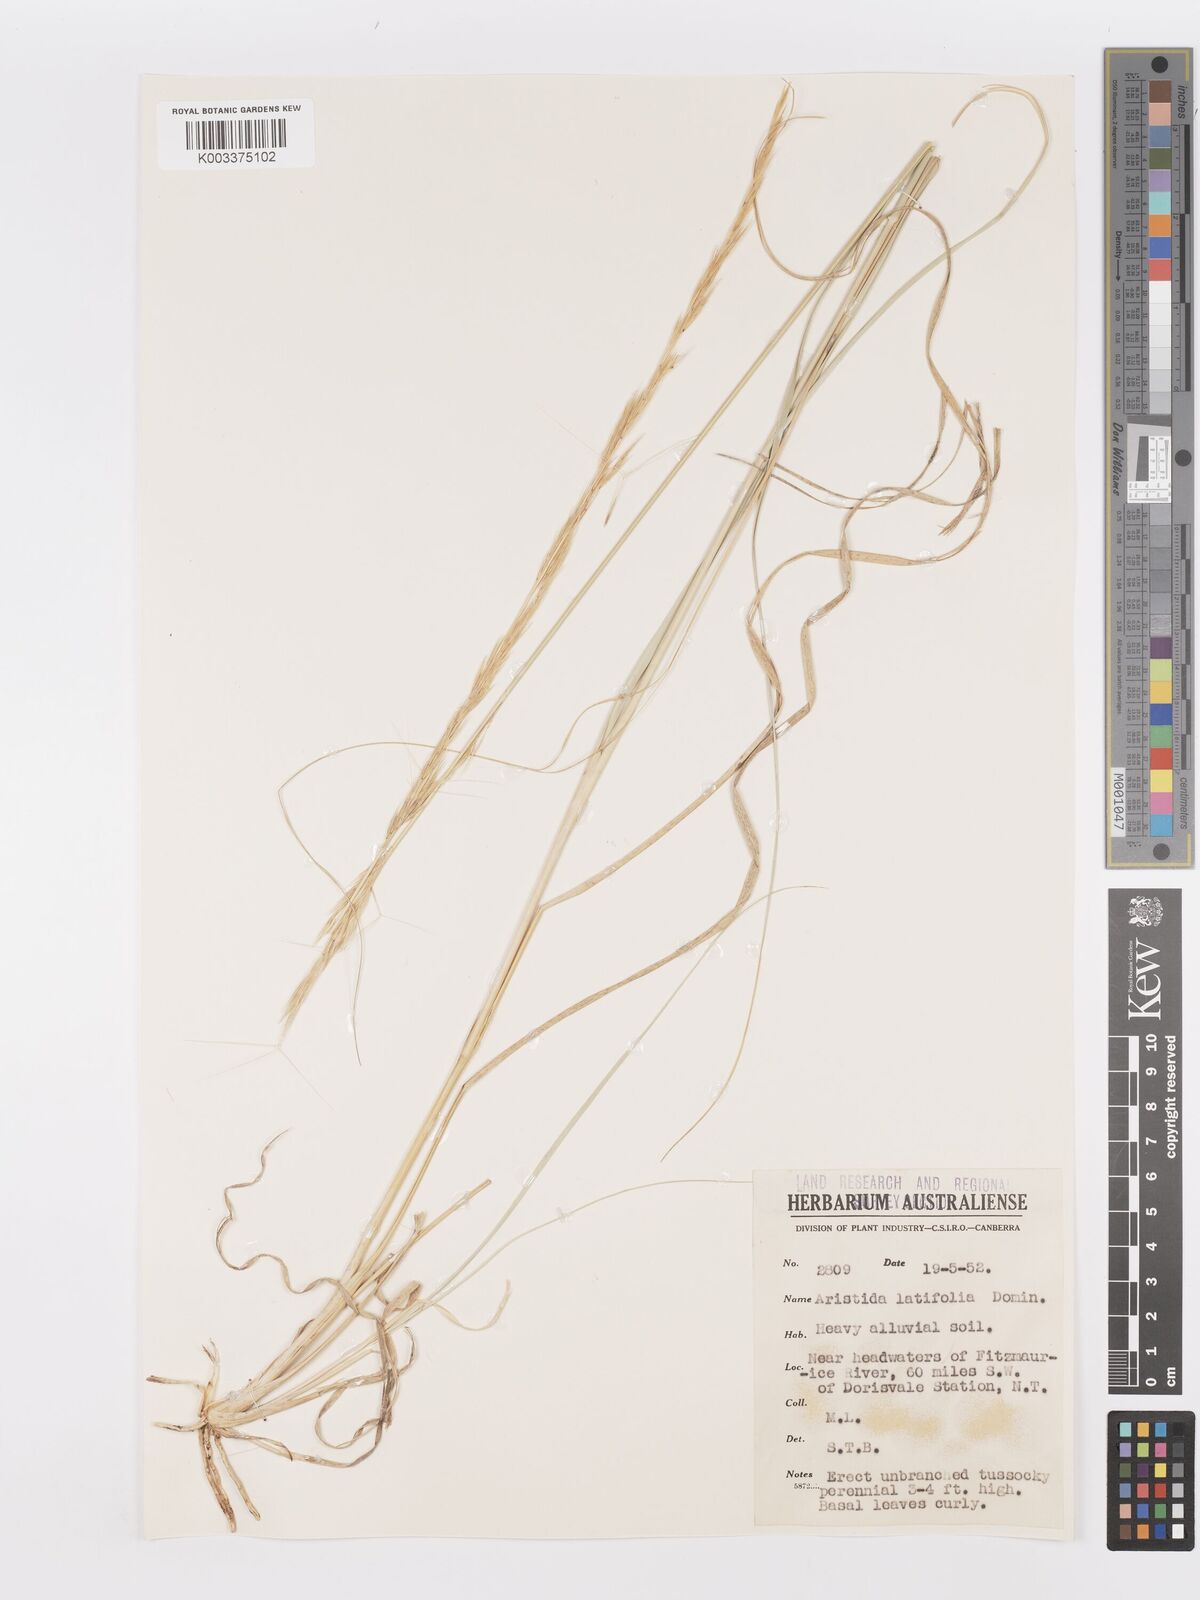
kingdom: Plantae
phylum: Tracheophyta
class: Liliopsida
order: Poales
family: Poaceae
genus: Aristida
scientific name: Aristida latifolia
